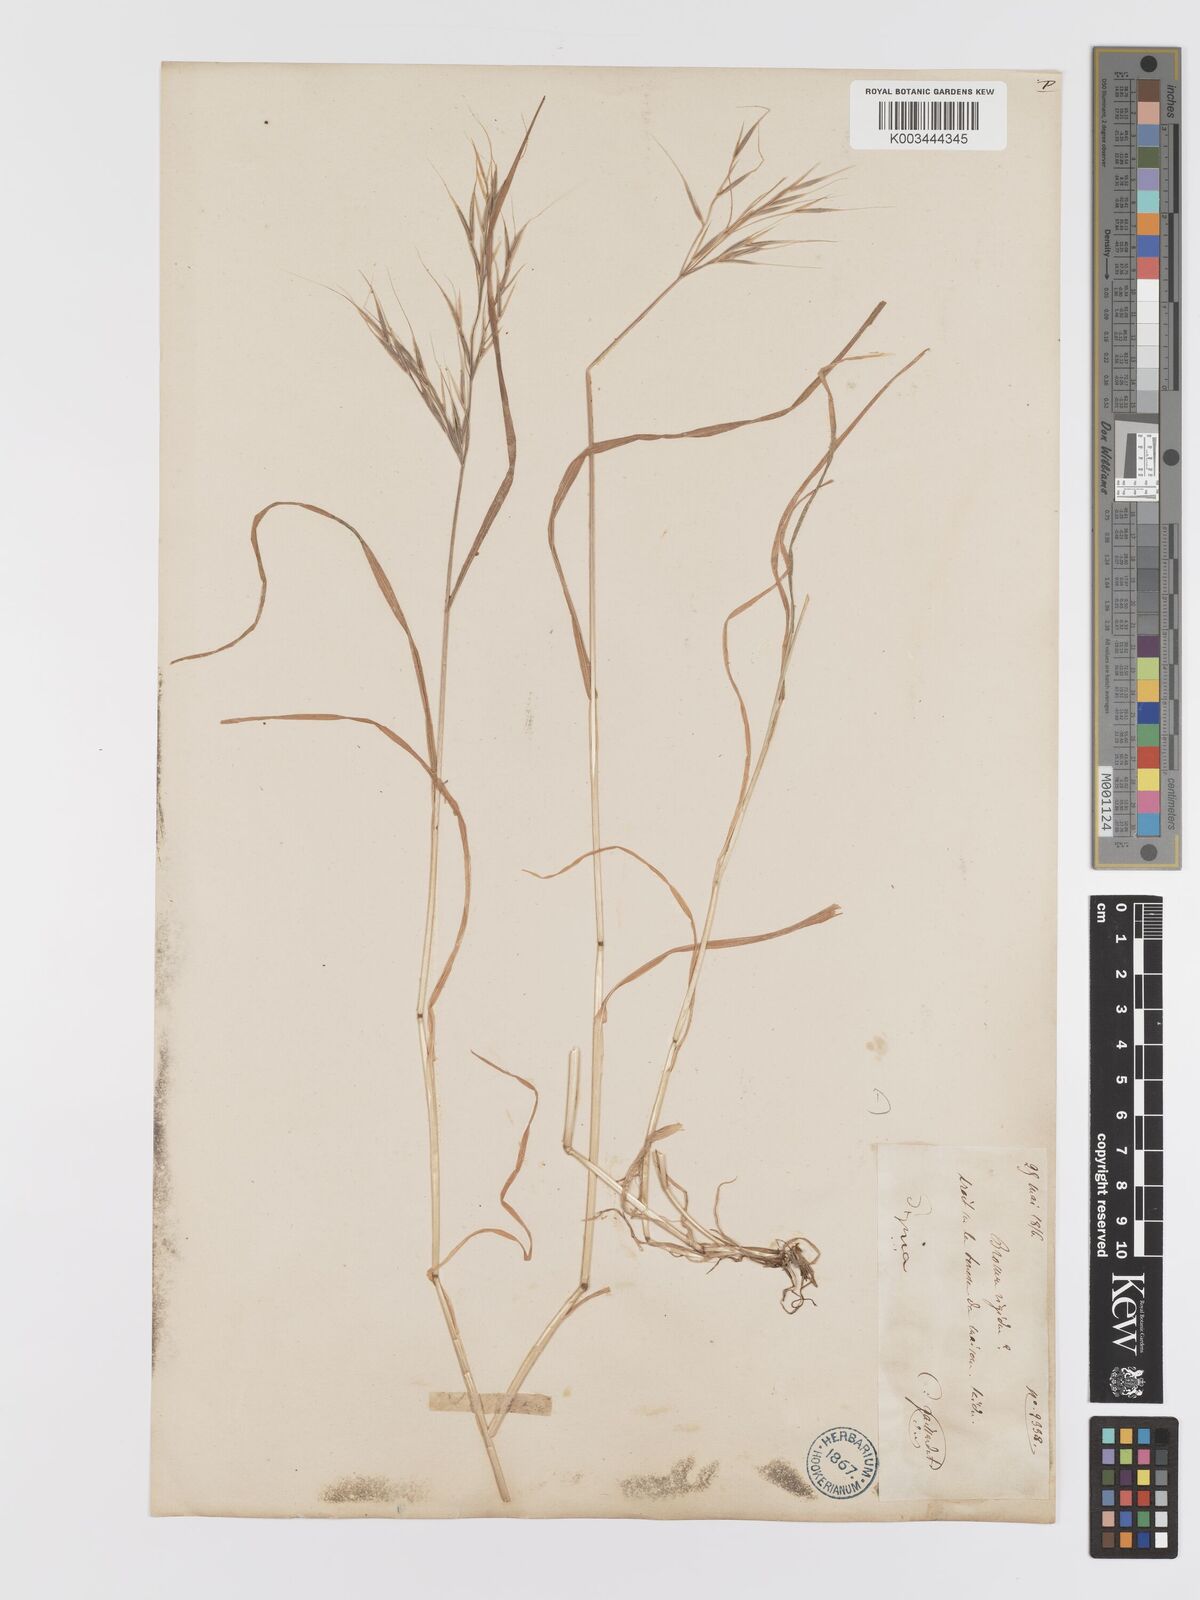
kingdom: Plantae
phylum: Tracheophyta
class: Liliopsida
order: Poales
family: Poaceae
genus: Bromus
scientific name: Bromus diandrus
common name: Ripgut brome
